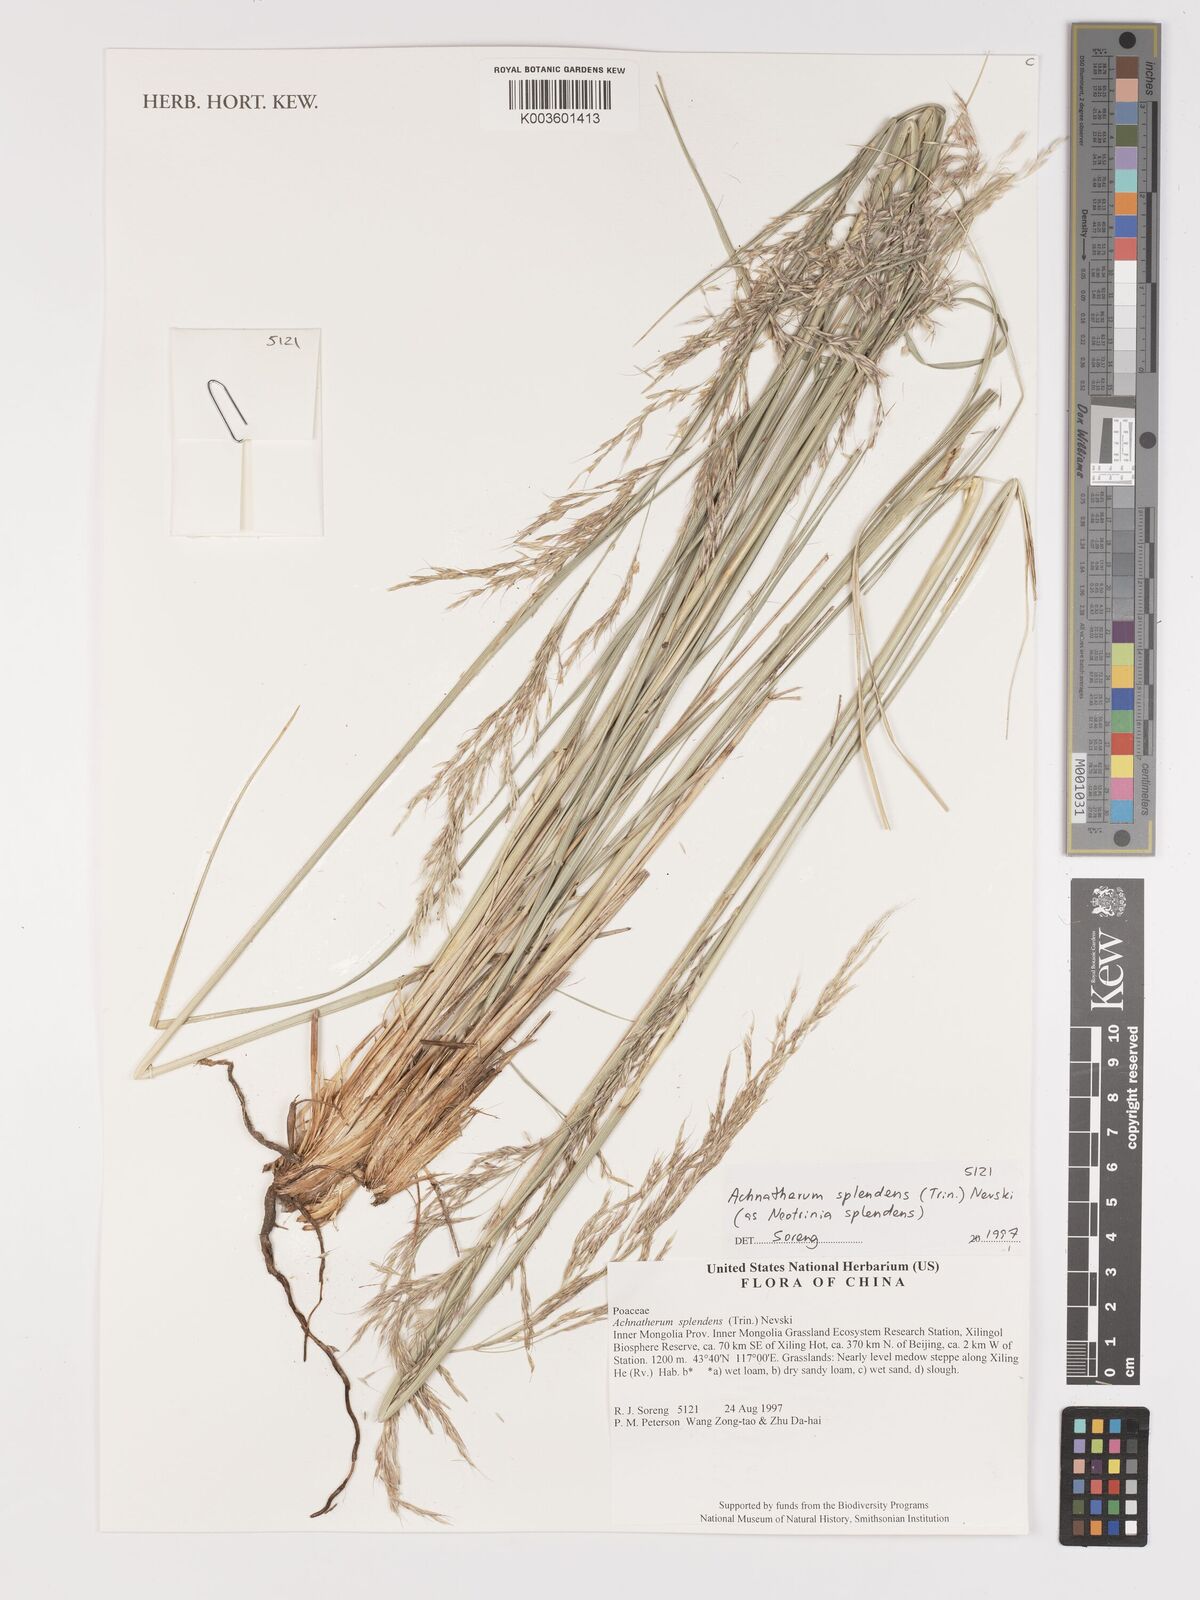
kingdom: Plantae
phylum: Tracheophyta
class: Liliopsida
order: Poales
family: Poaceae
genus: Neotrinia
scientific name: Neotrinia splendens
